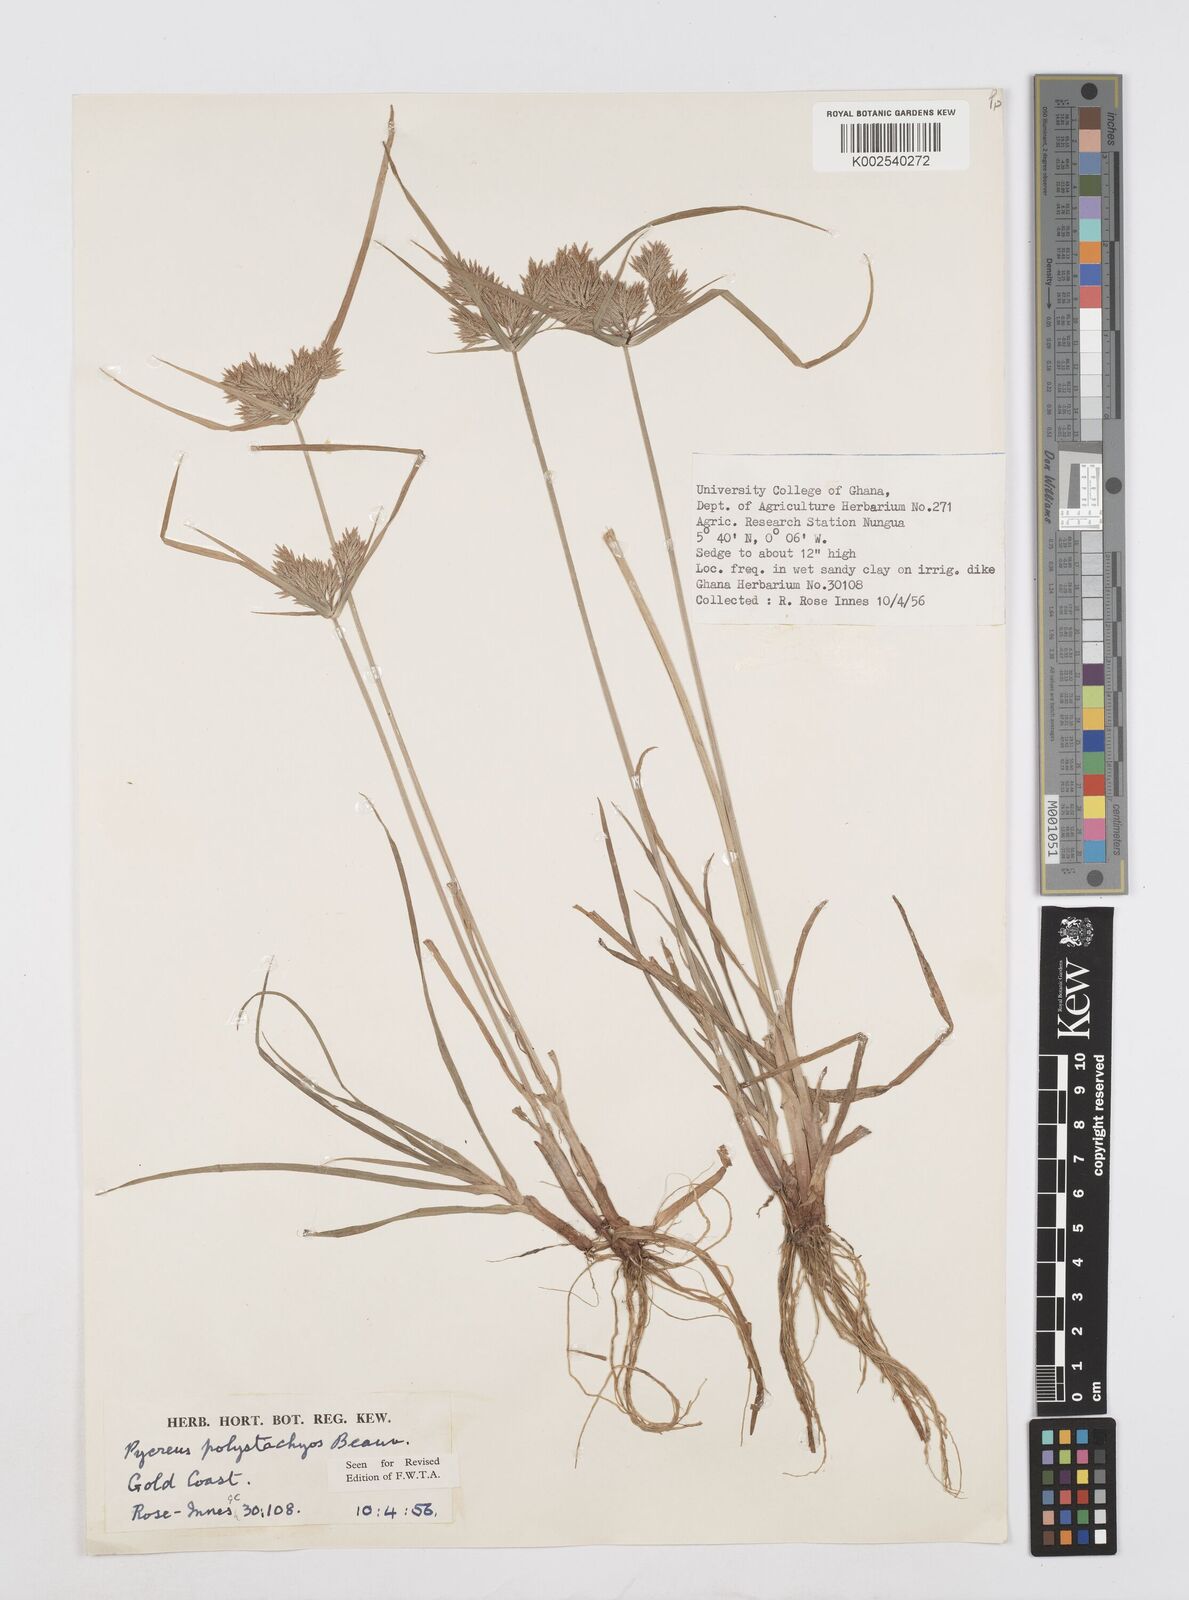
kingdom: Plantae
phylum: Tracheophyta
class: Liliopsida
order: Poales
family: Cyperaceae
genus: Cyperus
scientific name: Cyperus polystachyos
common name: Bunchy flat sedge
